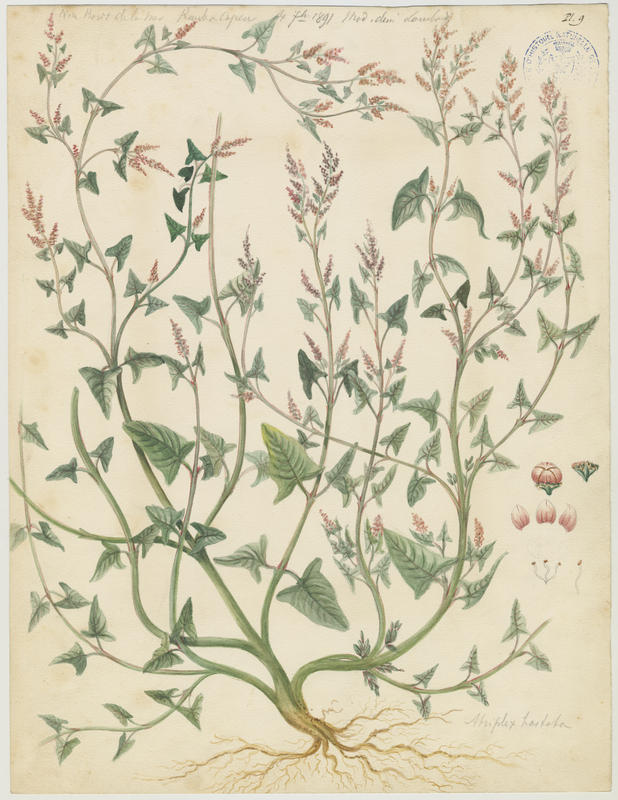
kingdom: Plantae
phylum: Tracheophyta
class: Magnoliopsida
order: Caryophyllales
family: Amaranthaceae
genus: Atriplex
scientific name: Atriplex calotheca
